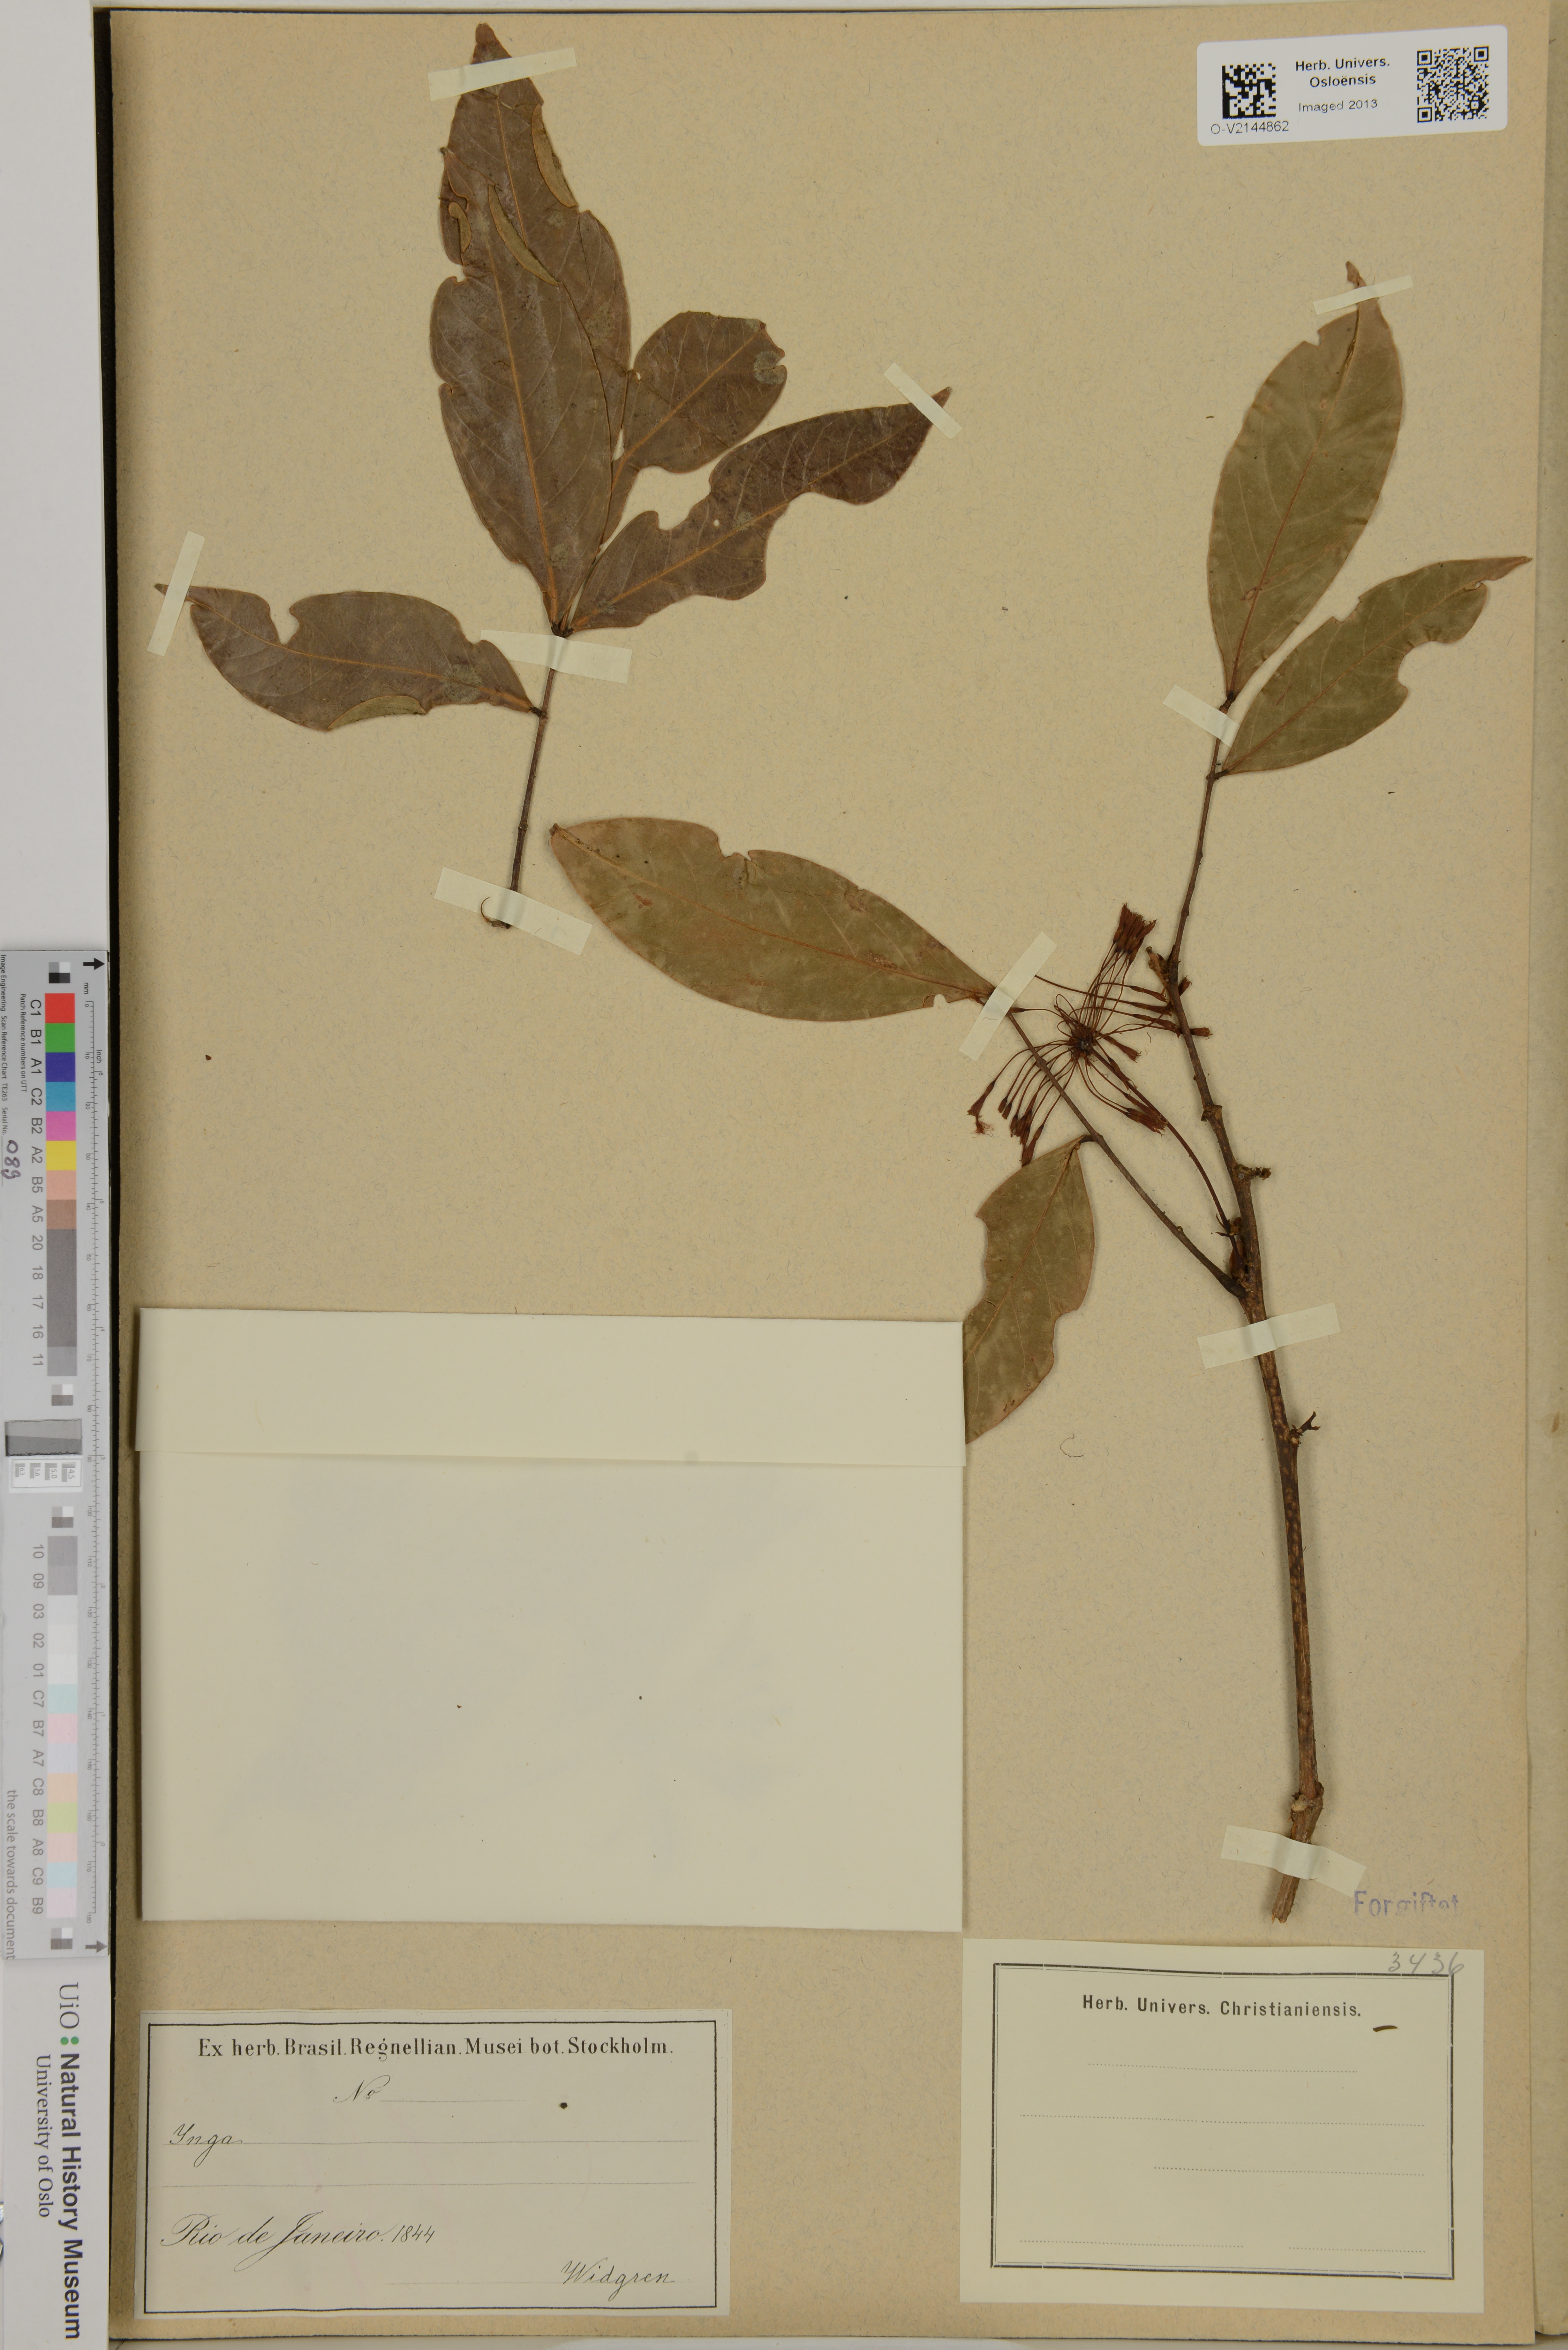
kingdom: Plantae
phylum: Tracheophyta
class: Magnoliopsida
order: Fabales
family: Fabaceae
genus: Inga
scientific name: Inga
